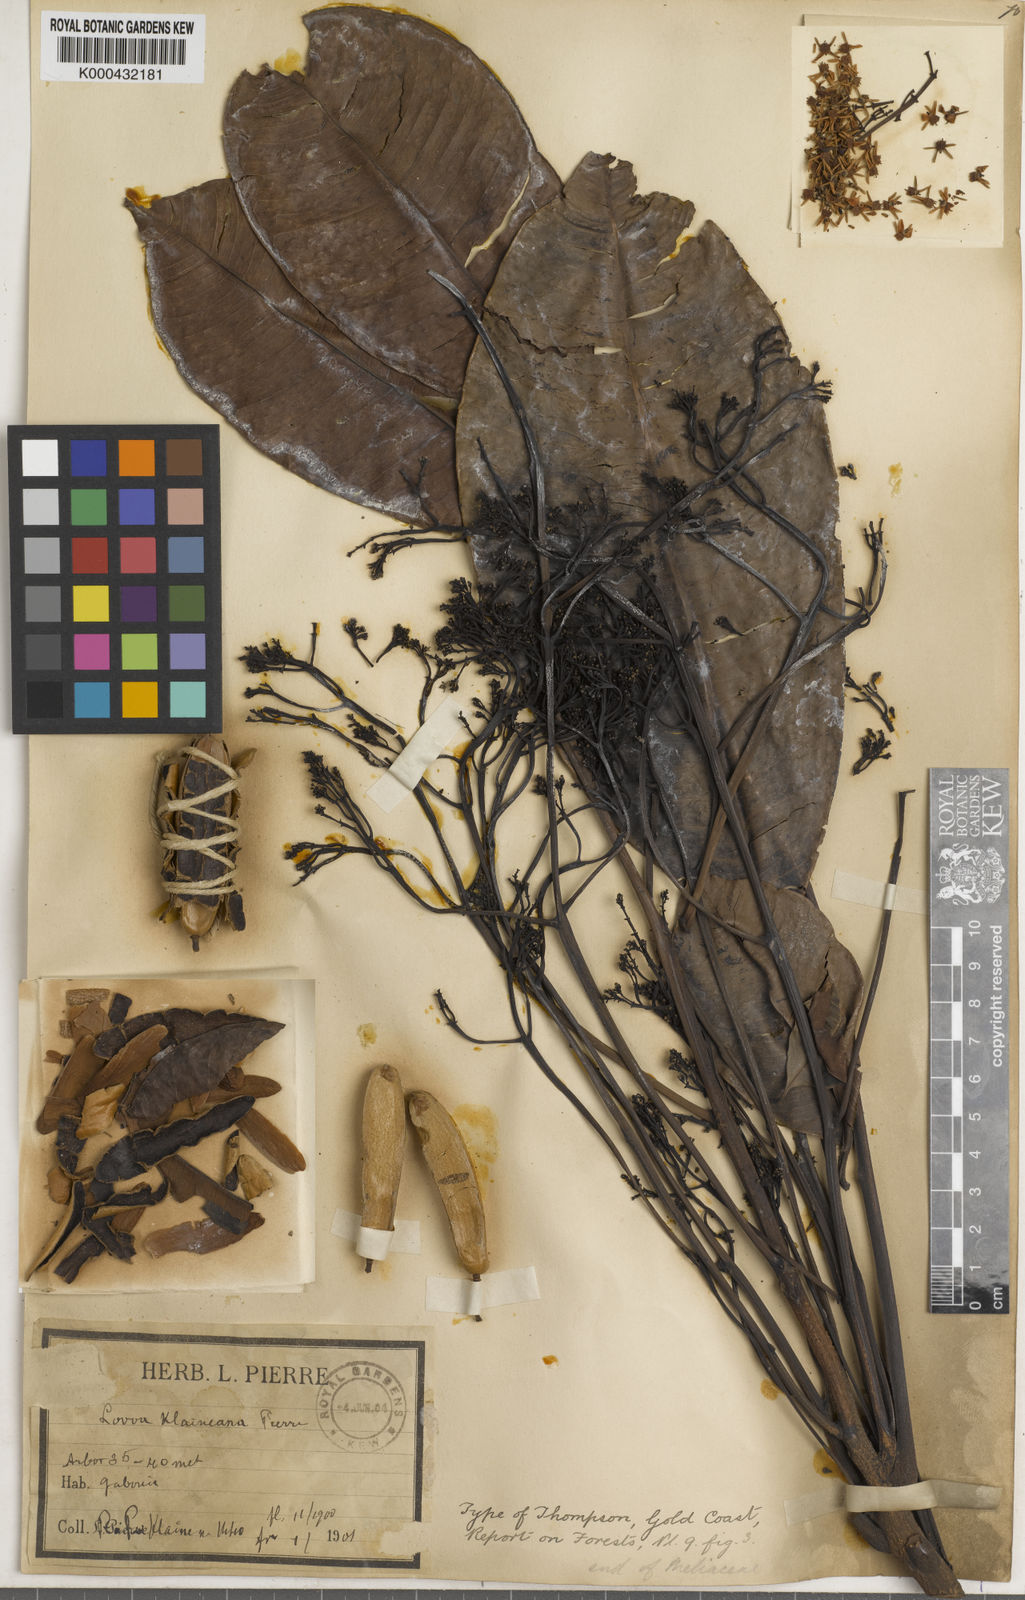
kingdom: Plantae
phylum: Tracheophyta
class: Magnoliopsida
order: Sapindales
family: Meliaceae
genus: Lovoa
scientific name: Lovoa trichilioides
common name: Congowood
